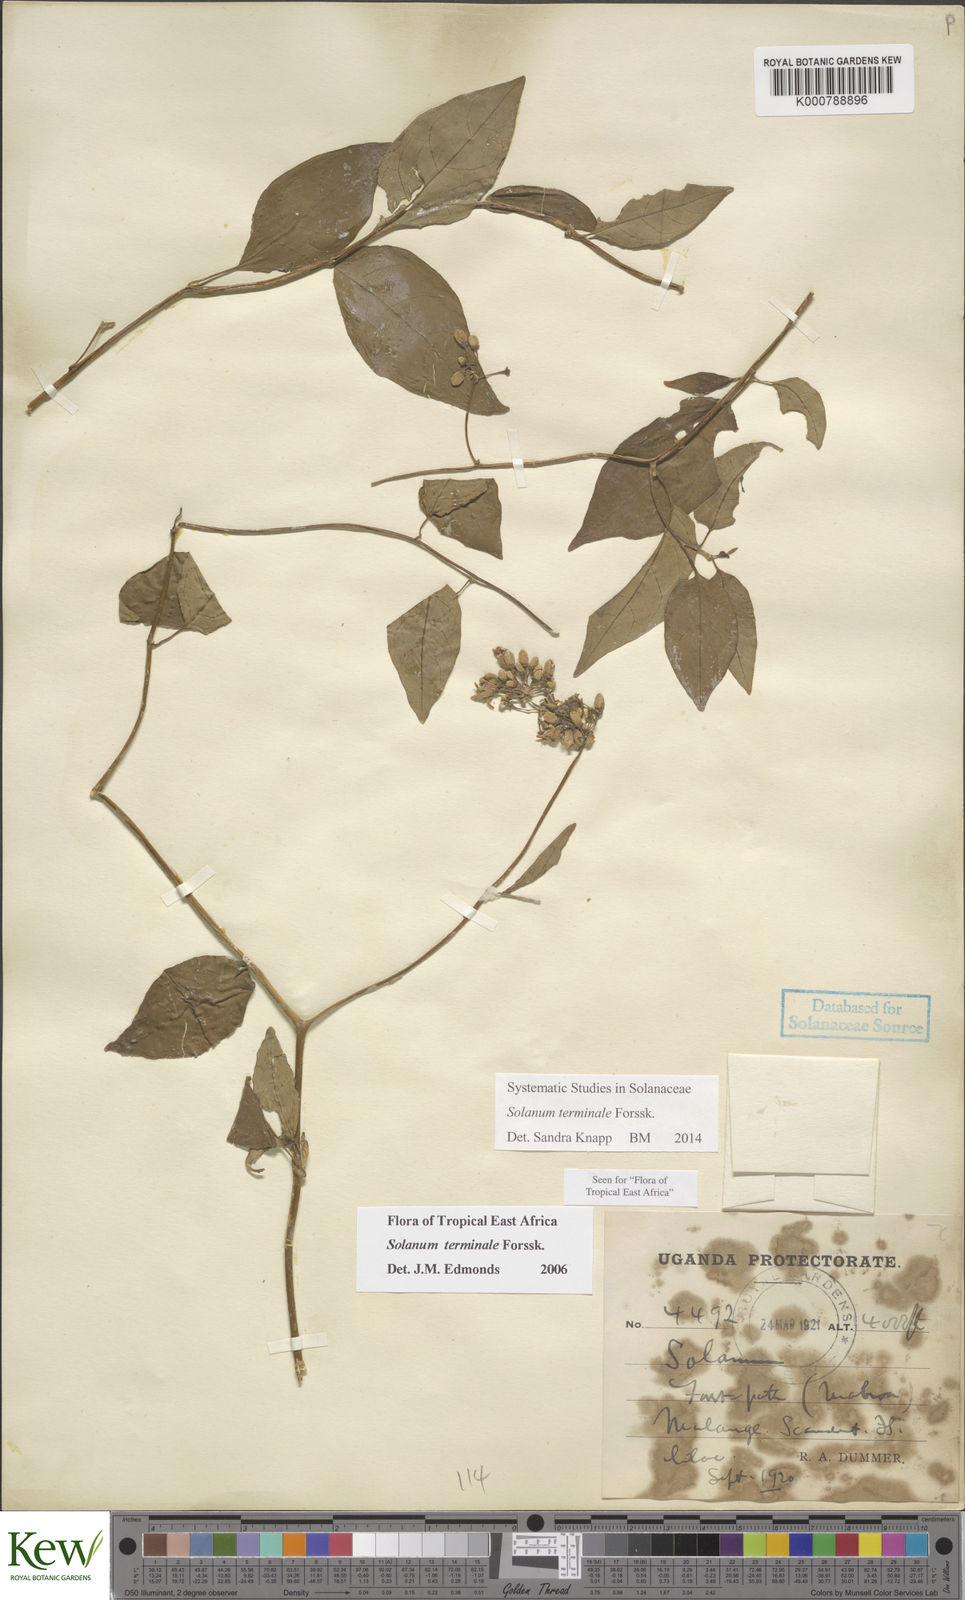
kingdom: Plantae
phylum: Tracheophyta
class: Magnoliopsida
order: Solanales
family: Solanaceae
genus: Solanum
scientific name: Solanum terminale
